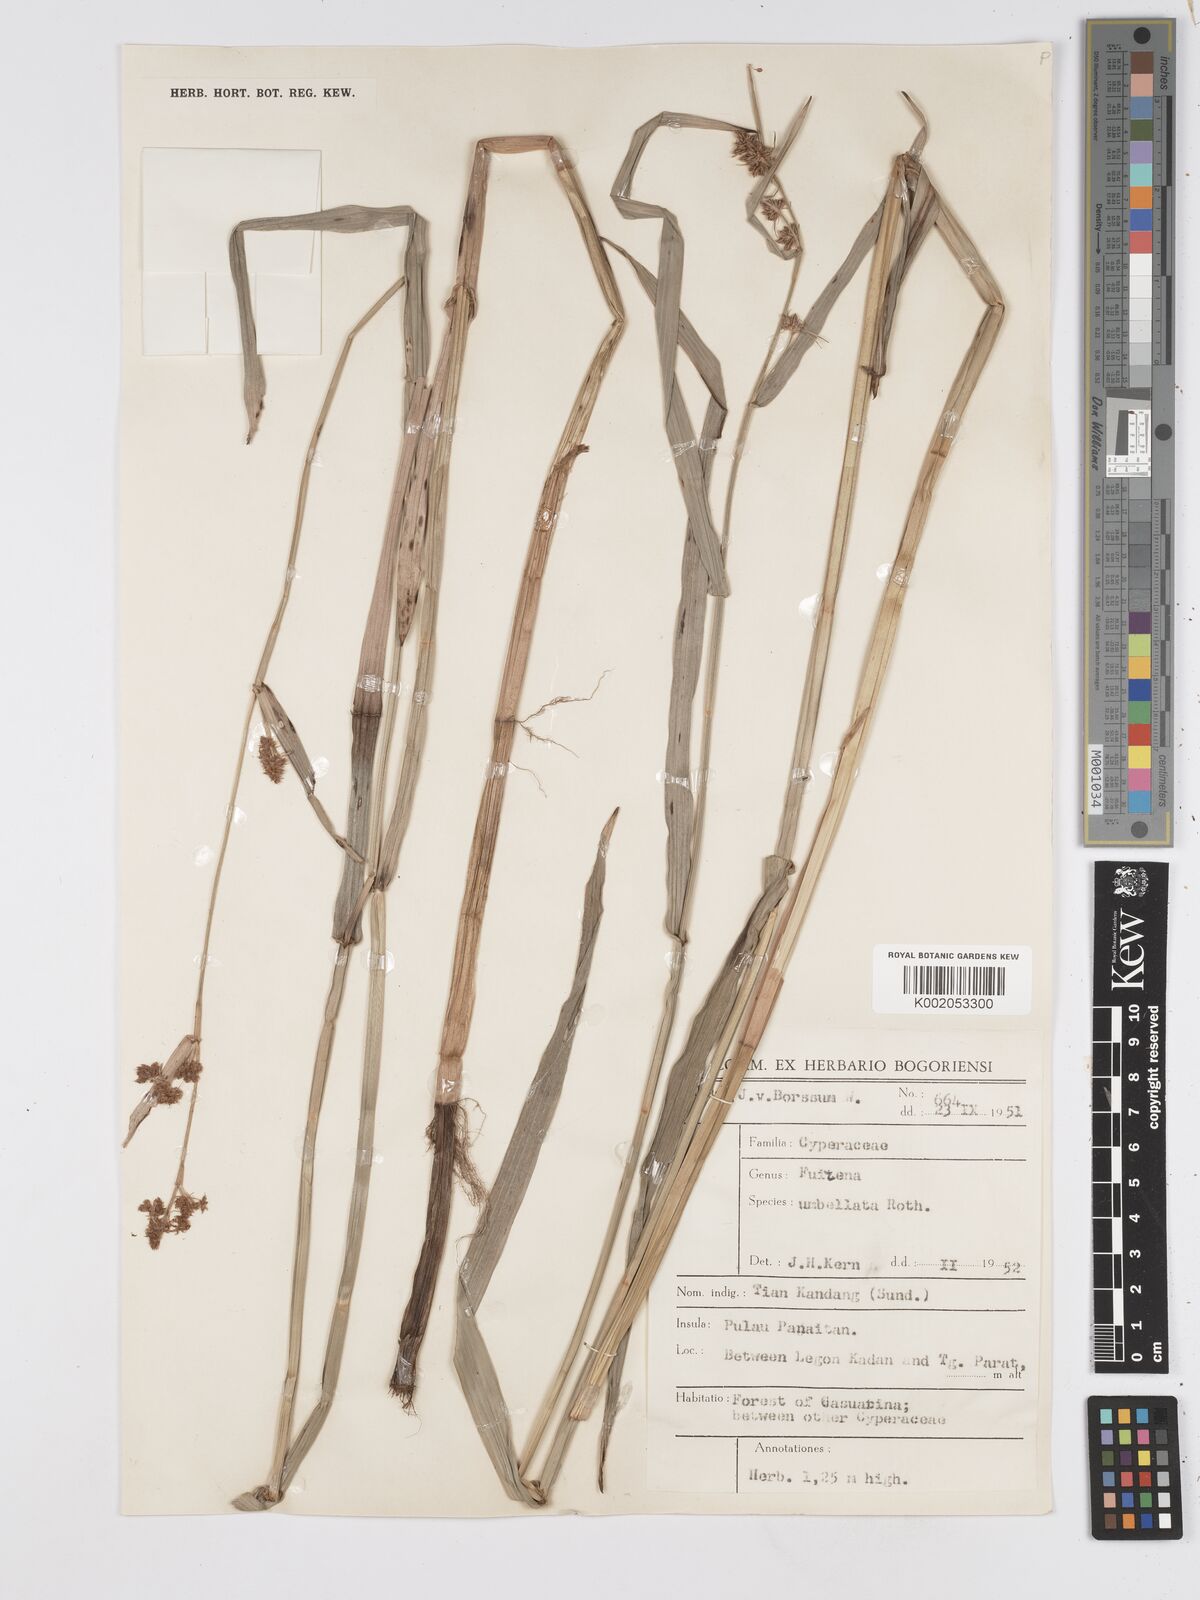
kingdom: Plantae
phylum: Tracheophyta
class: Liliopsida
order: Poales
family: Cyperaceae
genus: Fuirena
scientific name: Fuirena umbellata
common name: Yefen
